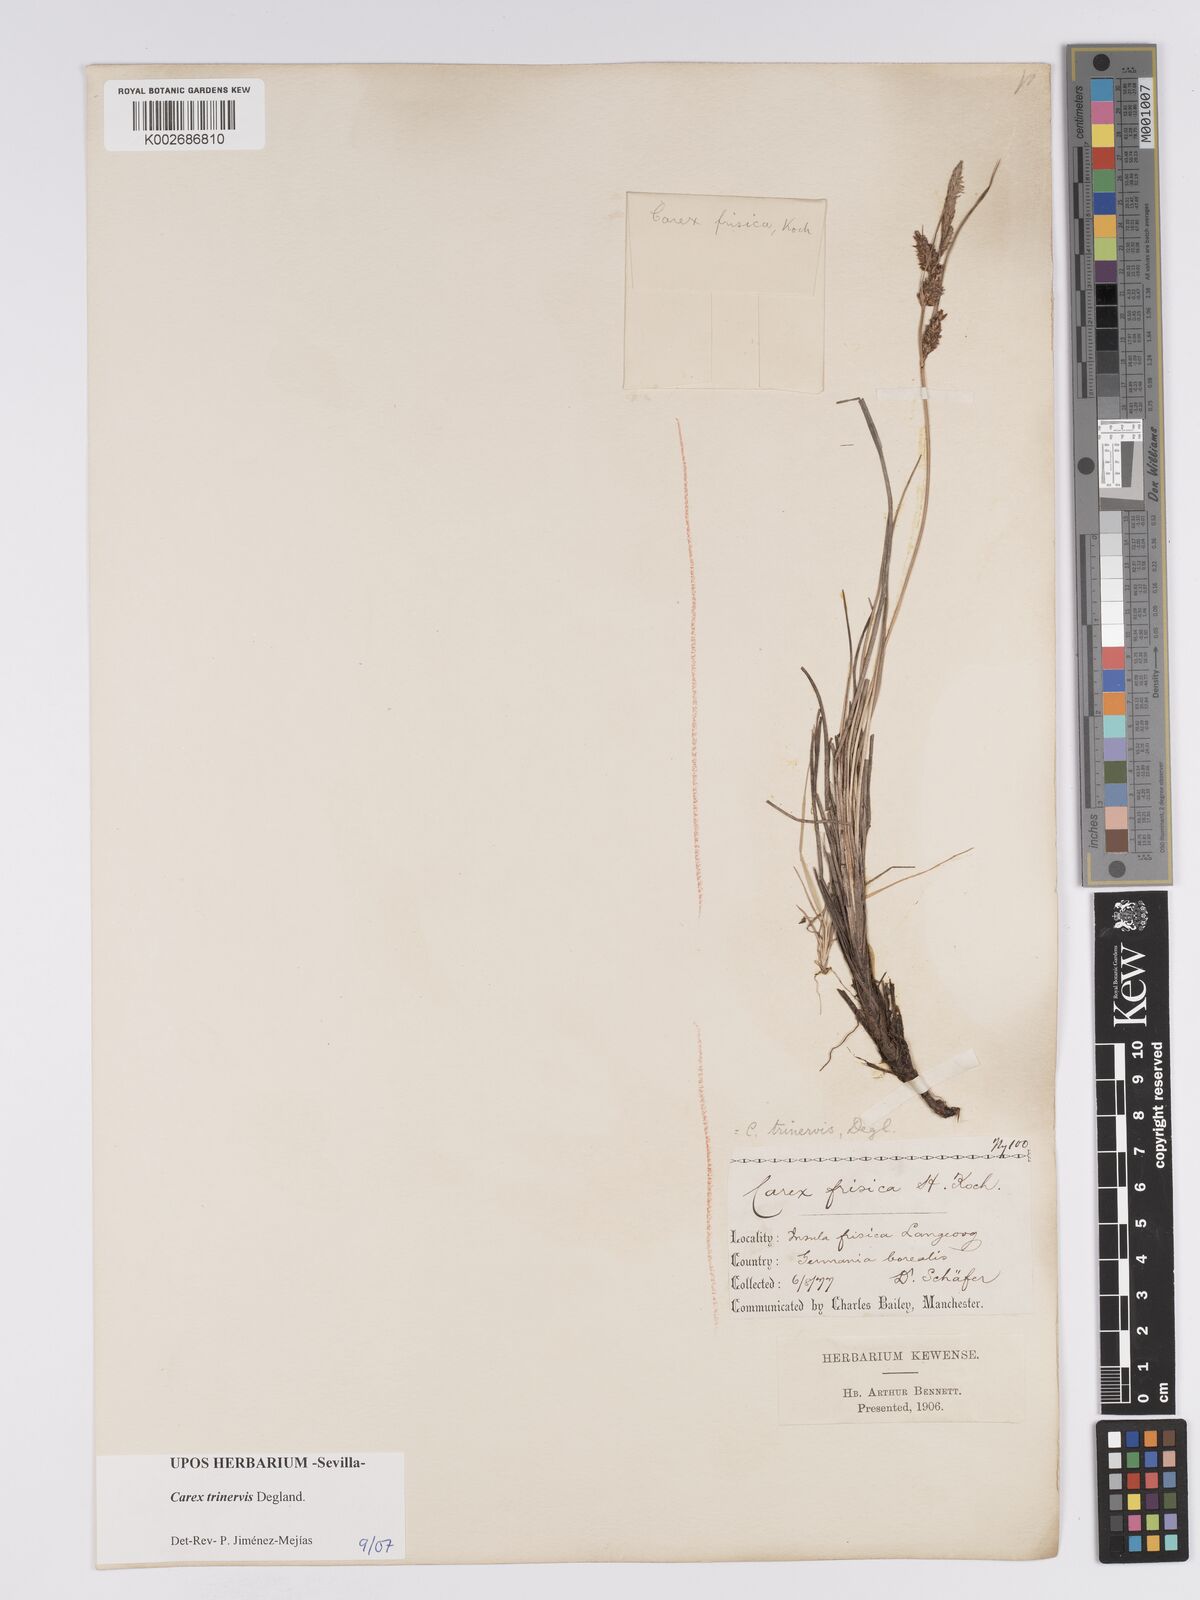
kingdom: Plantae
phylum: Tracheophyta
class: Liliopsida
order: Poales
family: Cyperaceae
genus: Carex
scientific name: Carex trinervis
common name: Three-nerved sedge
